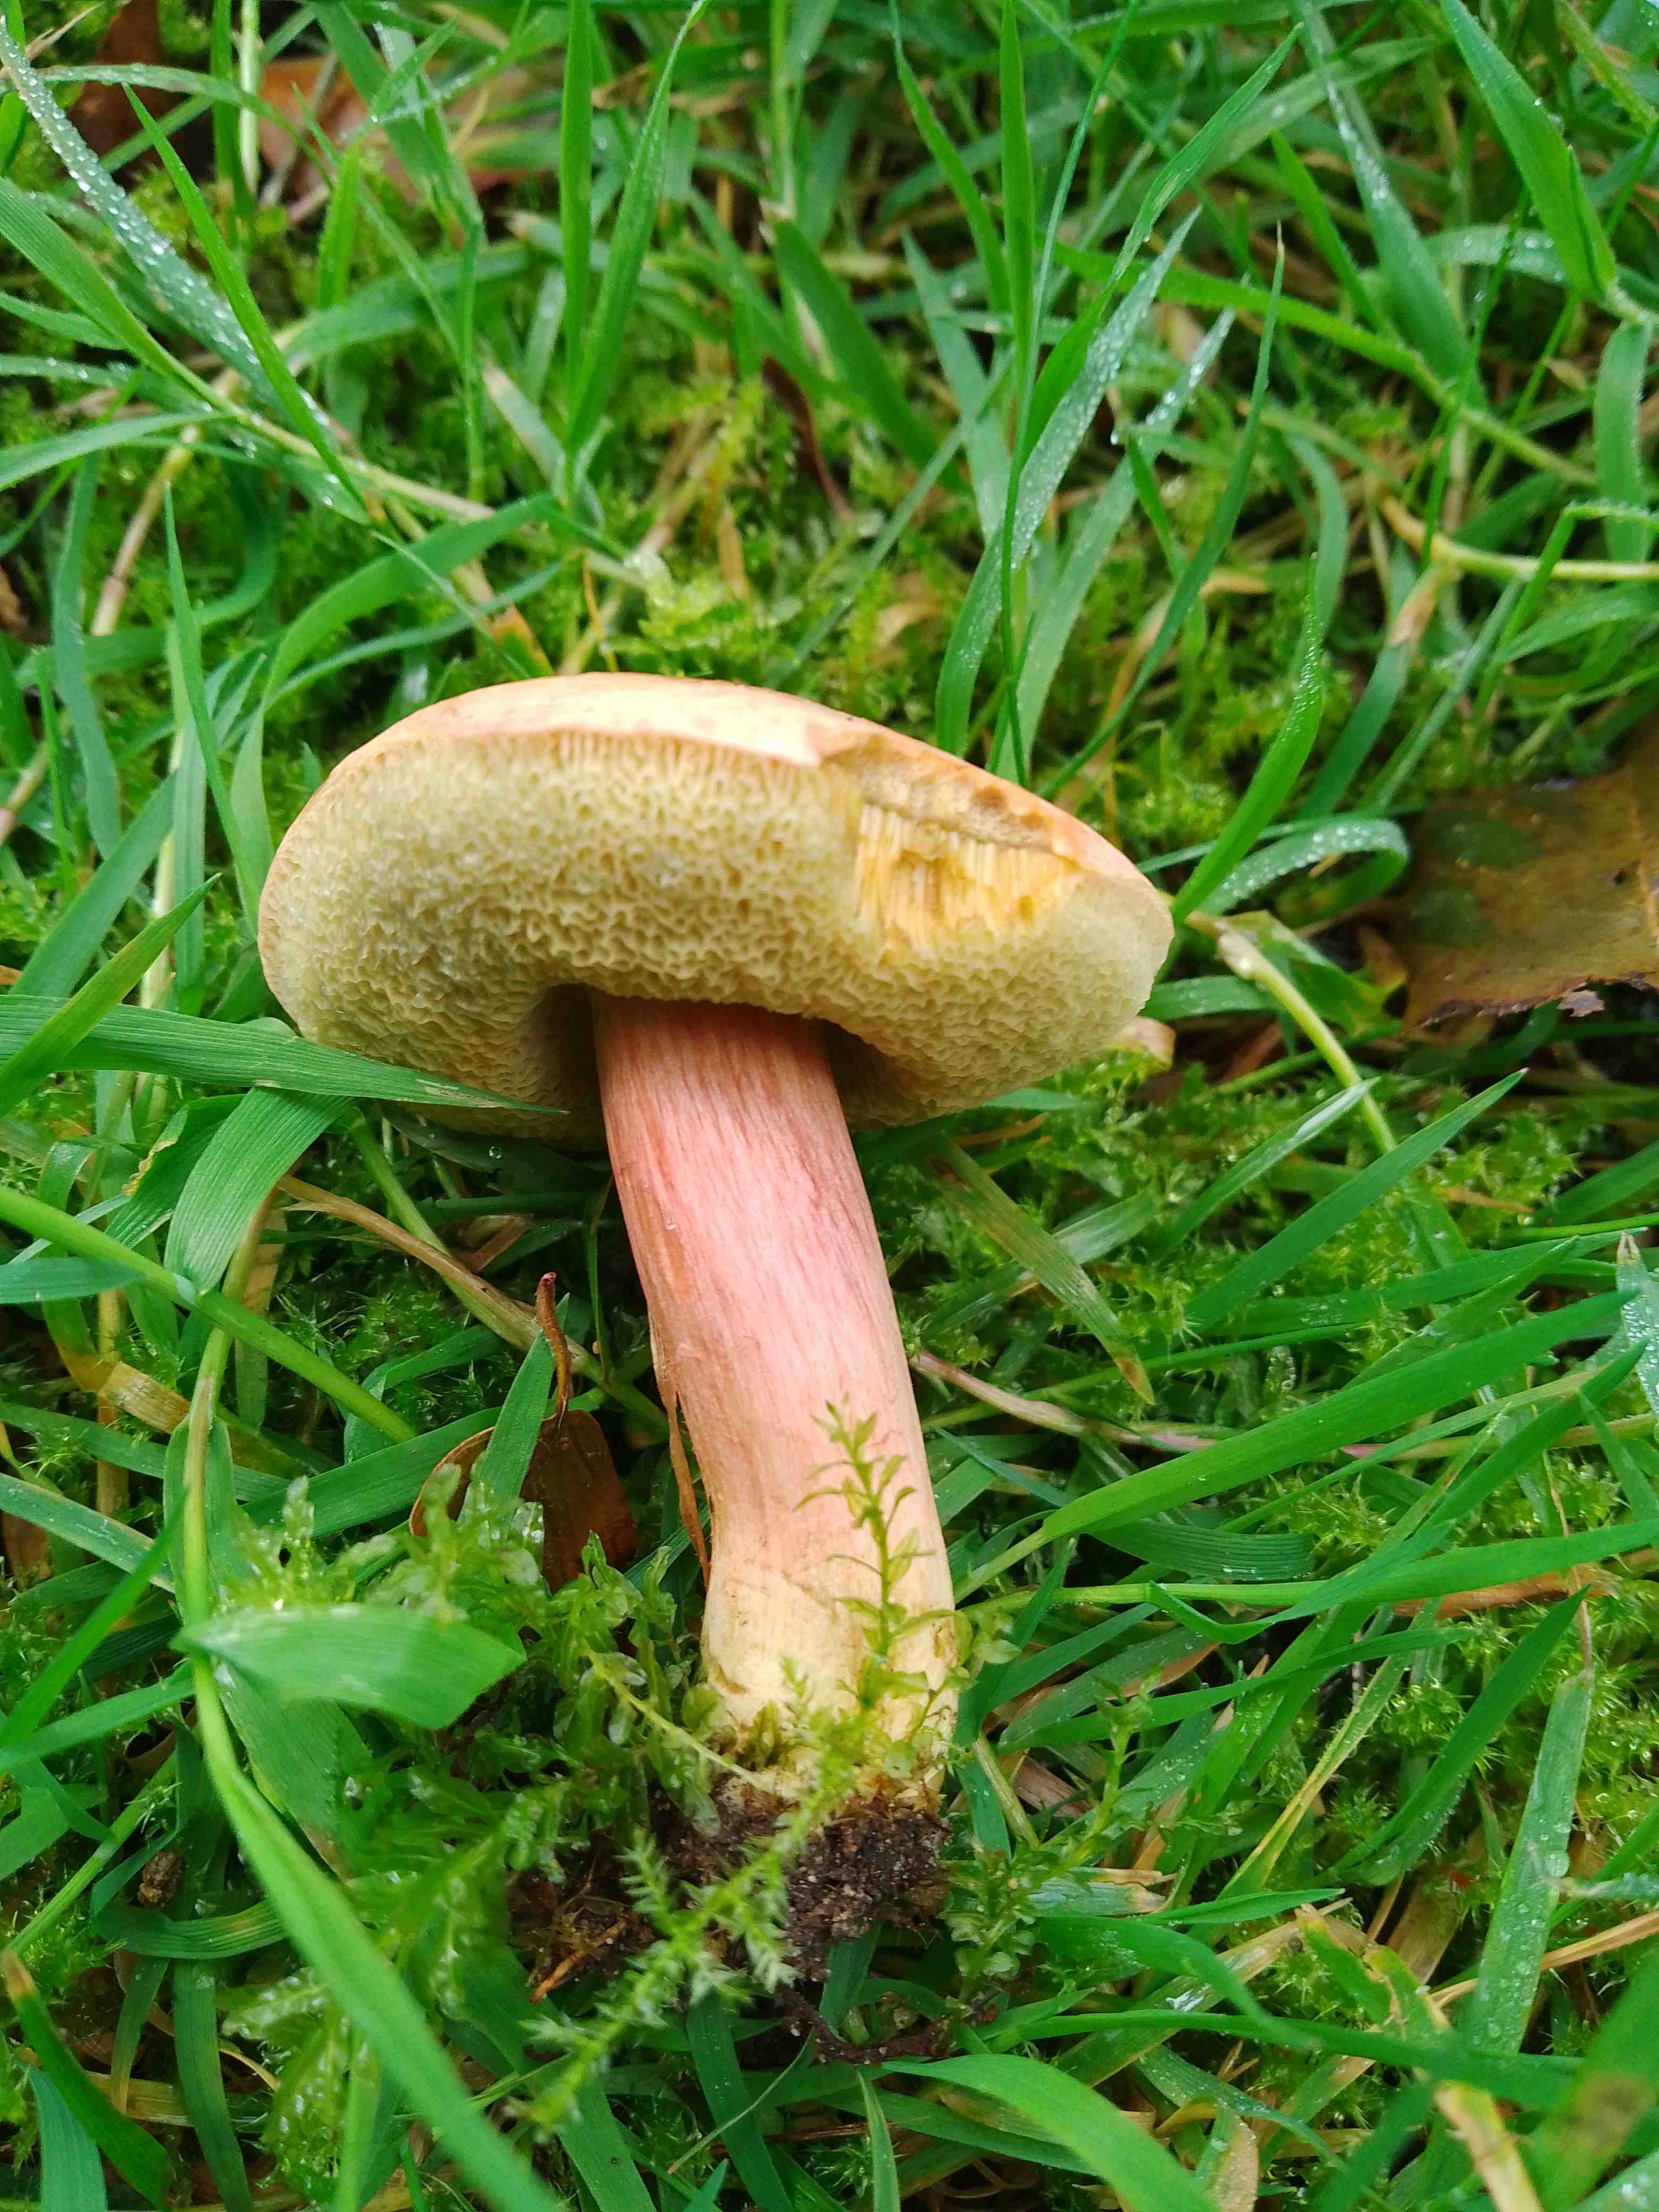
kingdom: Fungi
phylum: Basidiomycota
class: Agaricomycetes
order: Boletales
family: Boletaceae
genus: Hortiboletus
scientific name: Hortiboletus
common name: dværgrørhat
